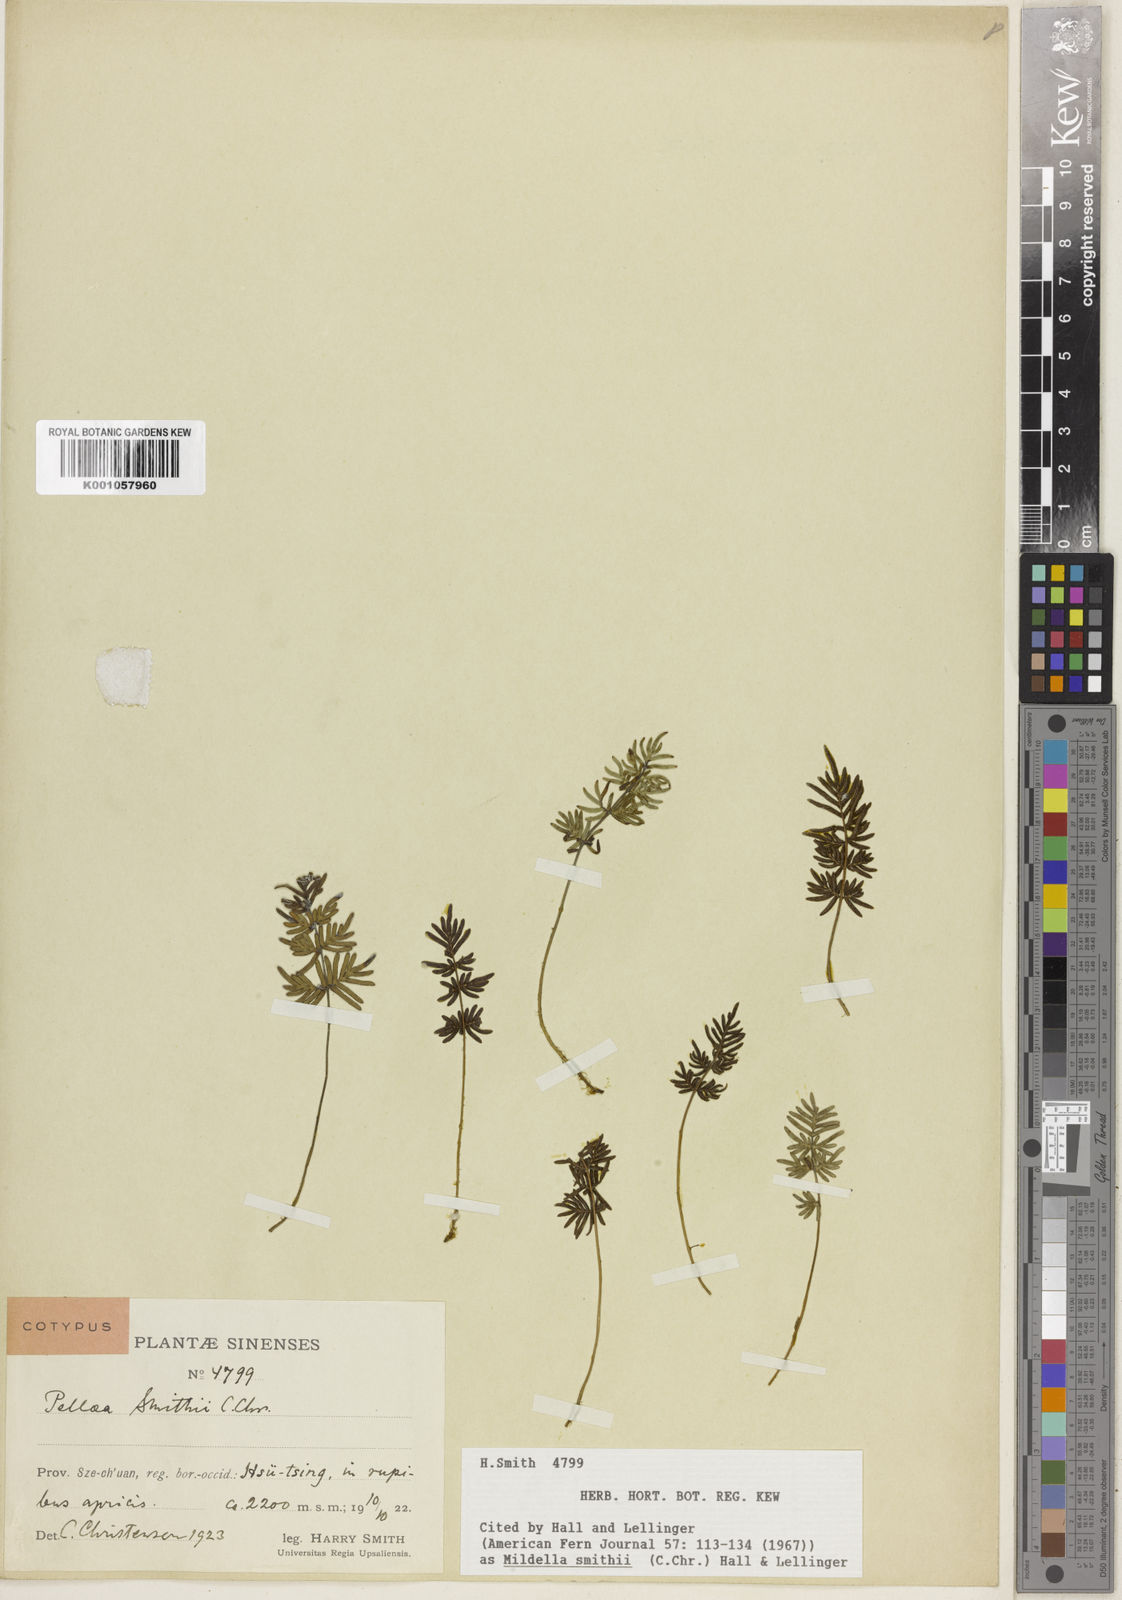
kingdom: Plantae
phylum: Tracheophyta
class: Polypodiopsida
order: Polypodiales
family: Pteridaceae
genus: Oeosporangium
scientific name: Oeosporangium smithii
